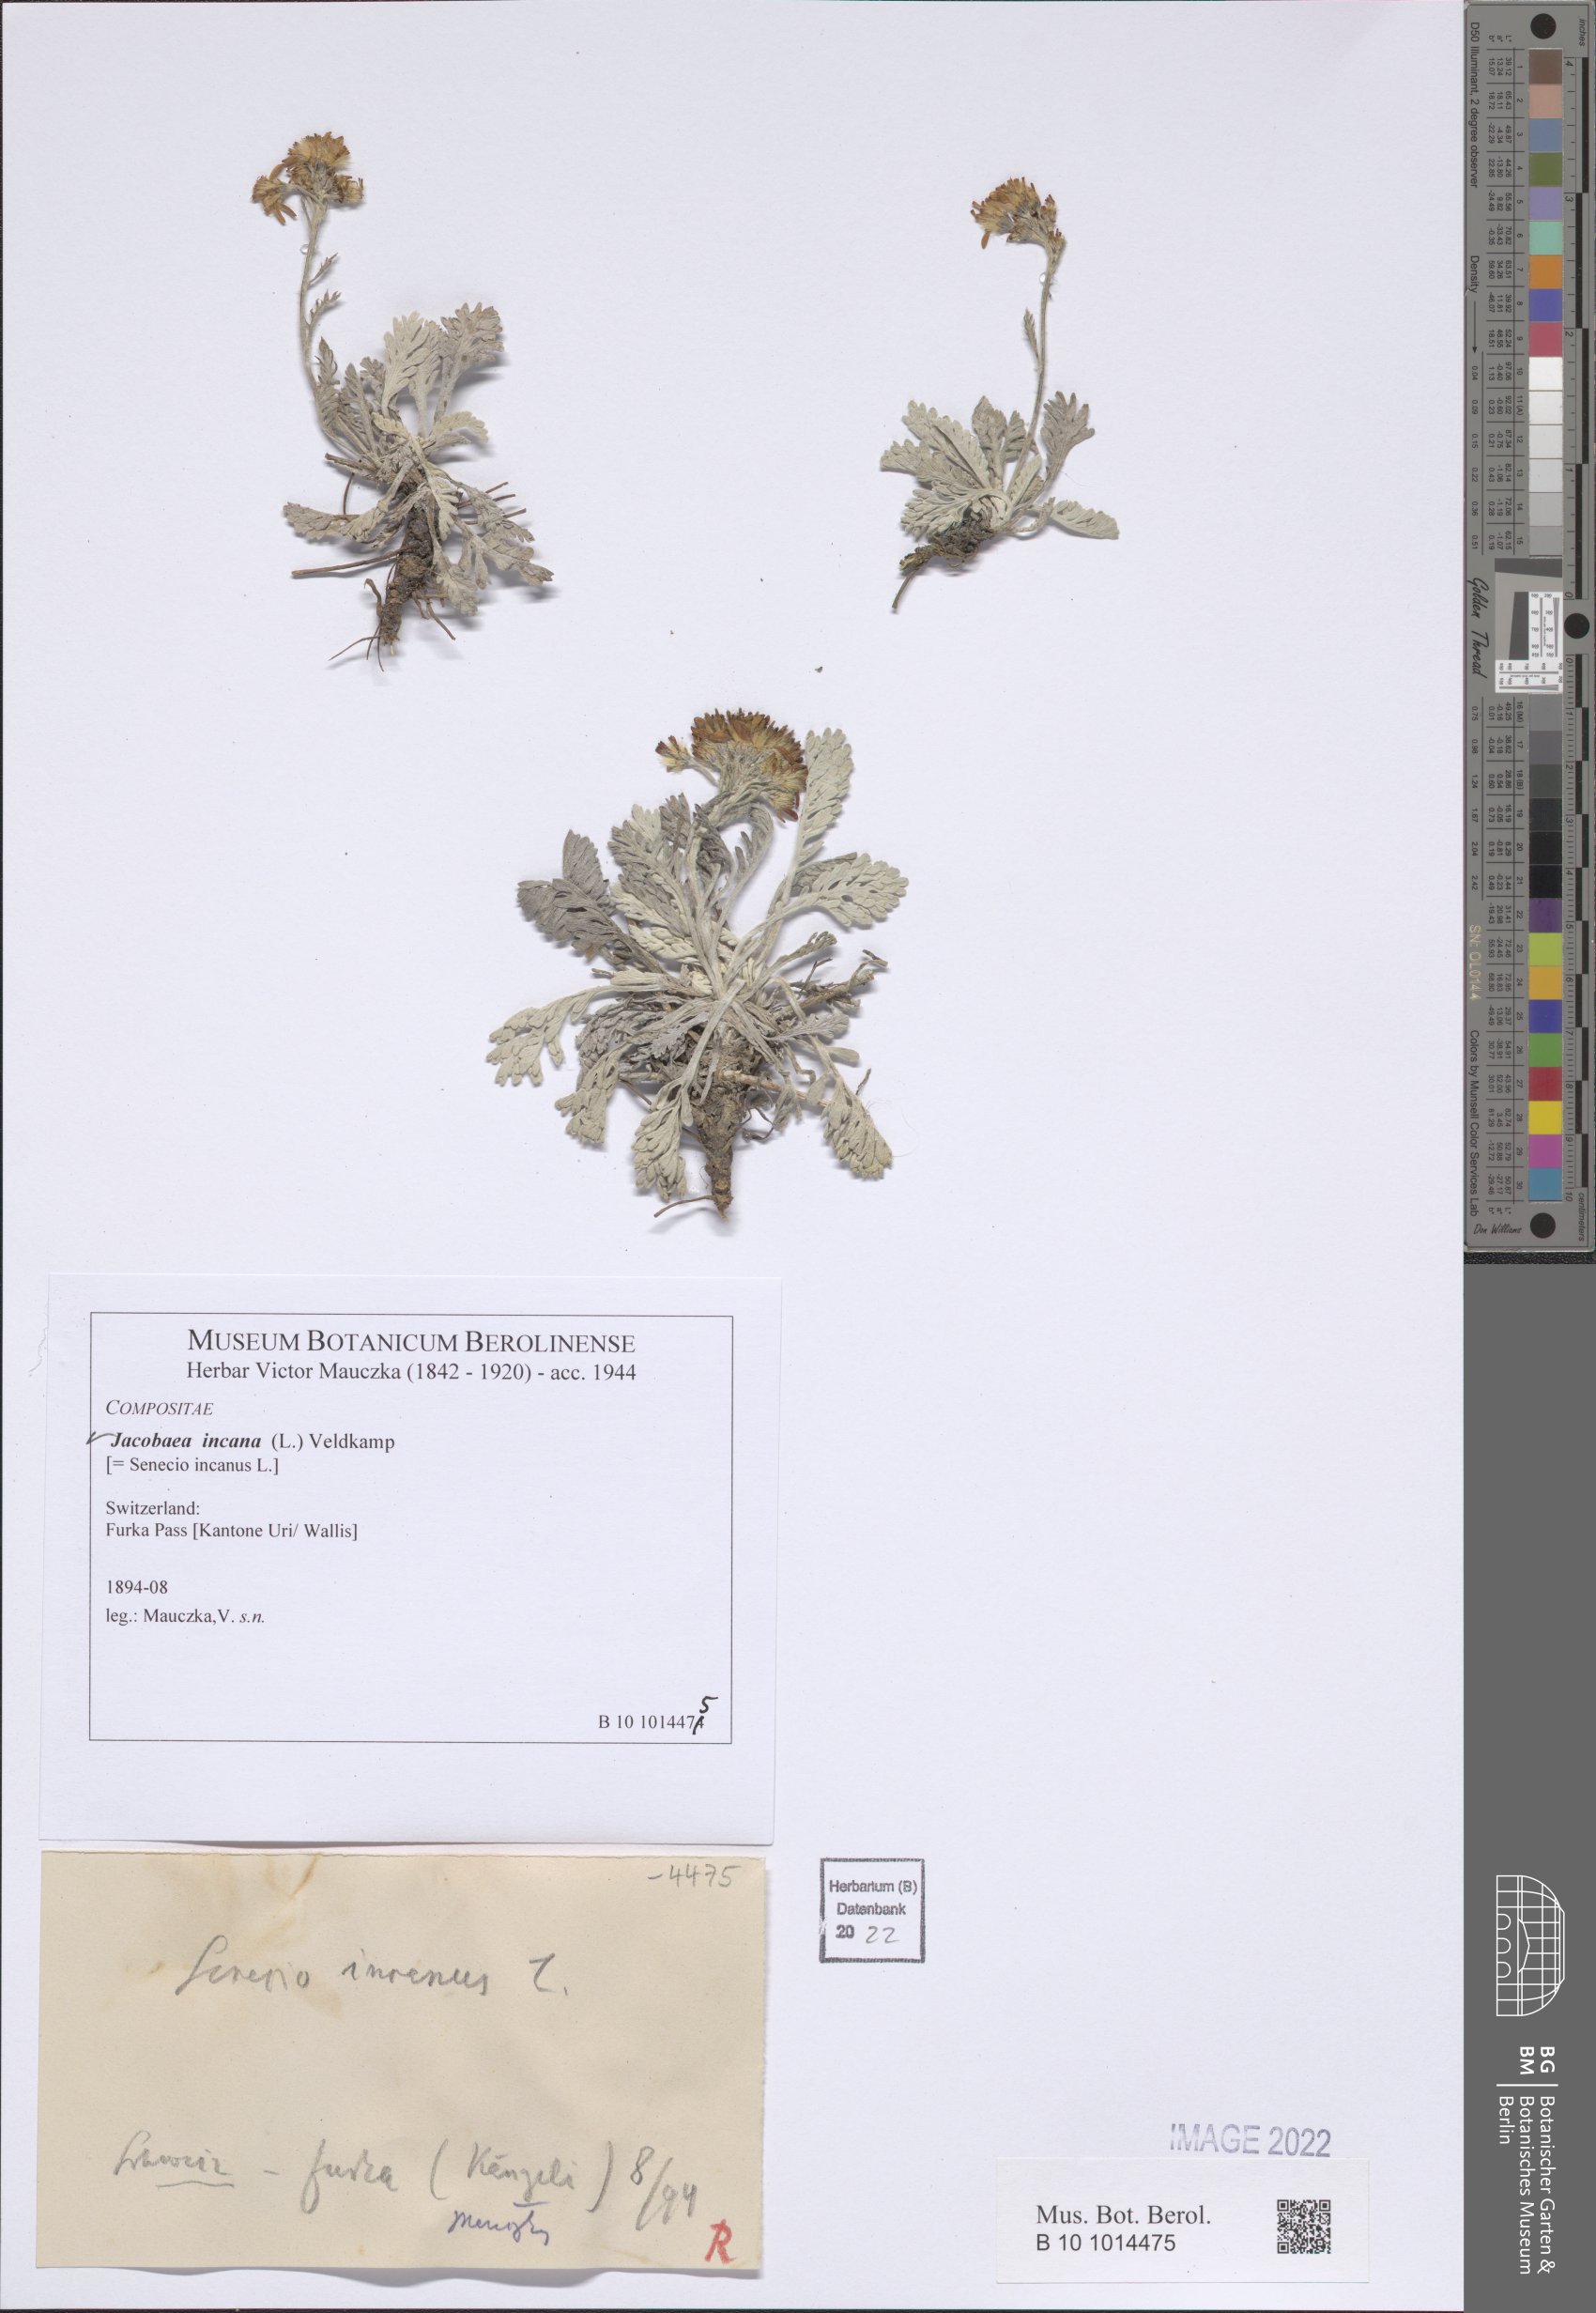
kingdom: Plantae
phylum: Tracheophyta
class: Magnoliopsida
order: Asterales
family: Asteraceae
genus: Jacobaea
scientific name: Jacobaea incana
